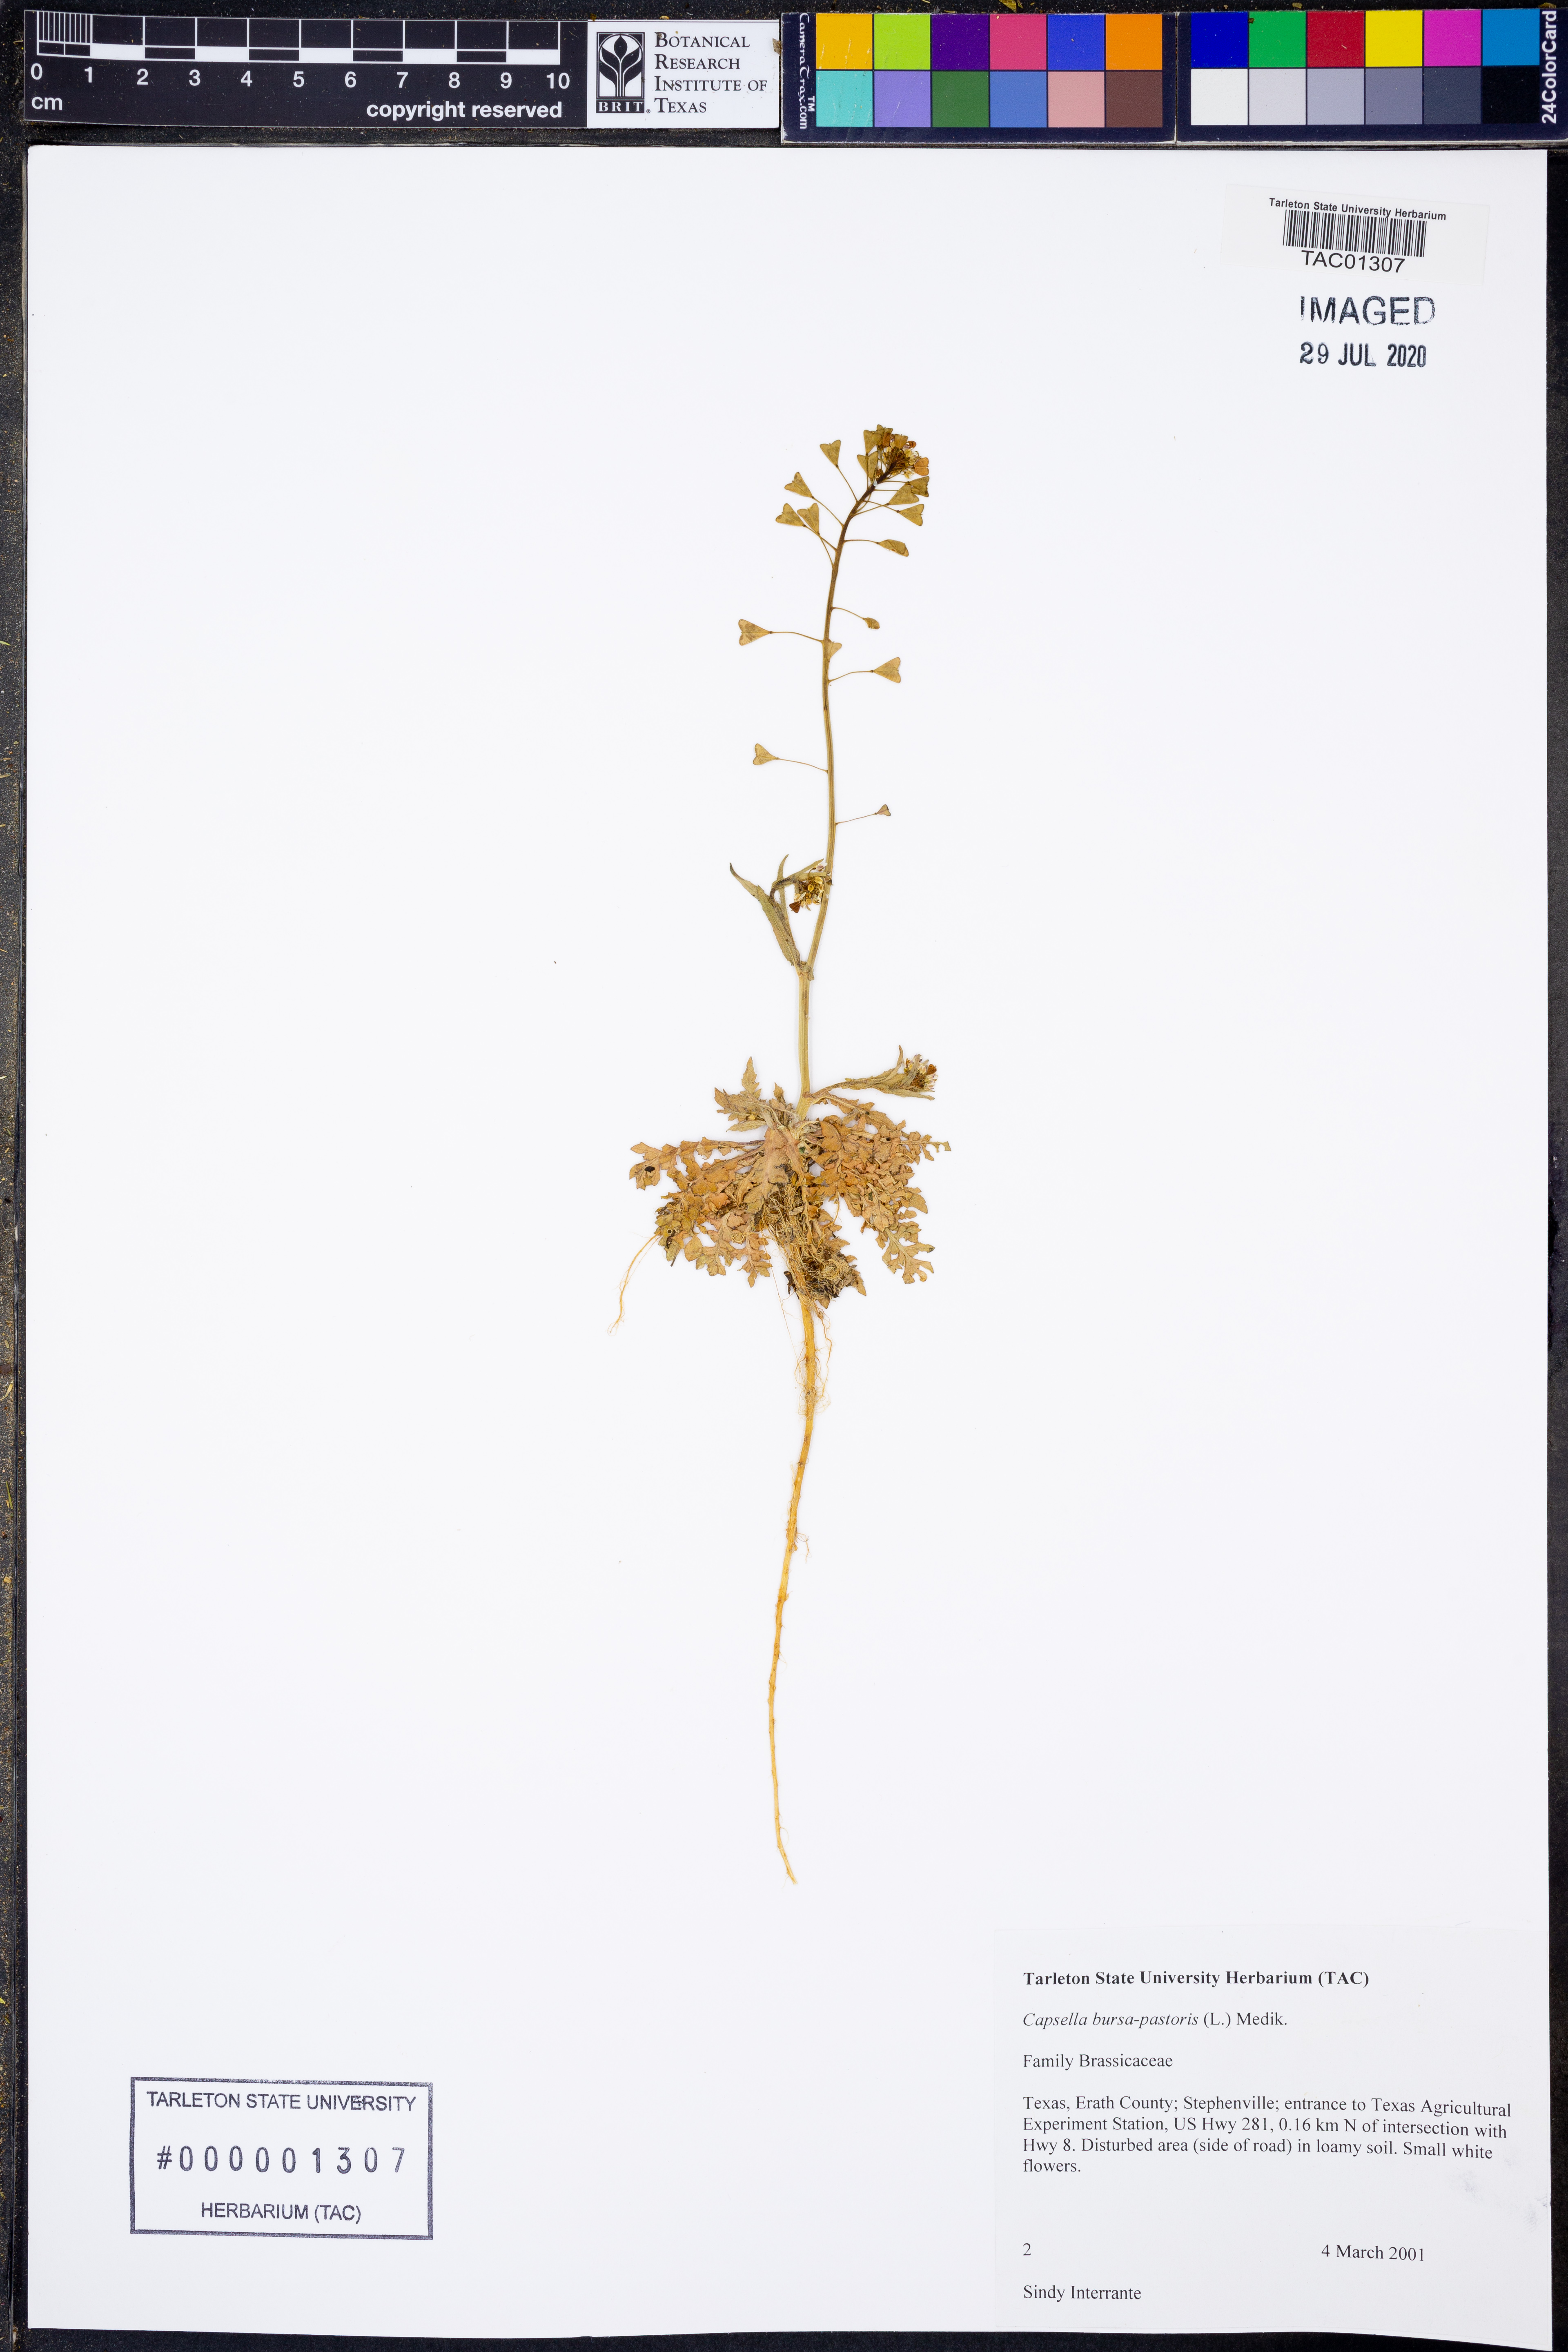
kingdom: Plantae
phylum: Tracheophyta
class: Magnoliopsida
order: Brassicales
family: Brassicaceae
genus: Capsella
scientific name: Capsella bursa-pastoris
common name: Shepherd's purse
